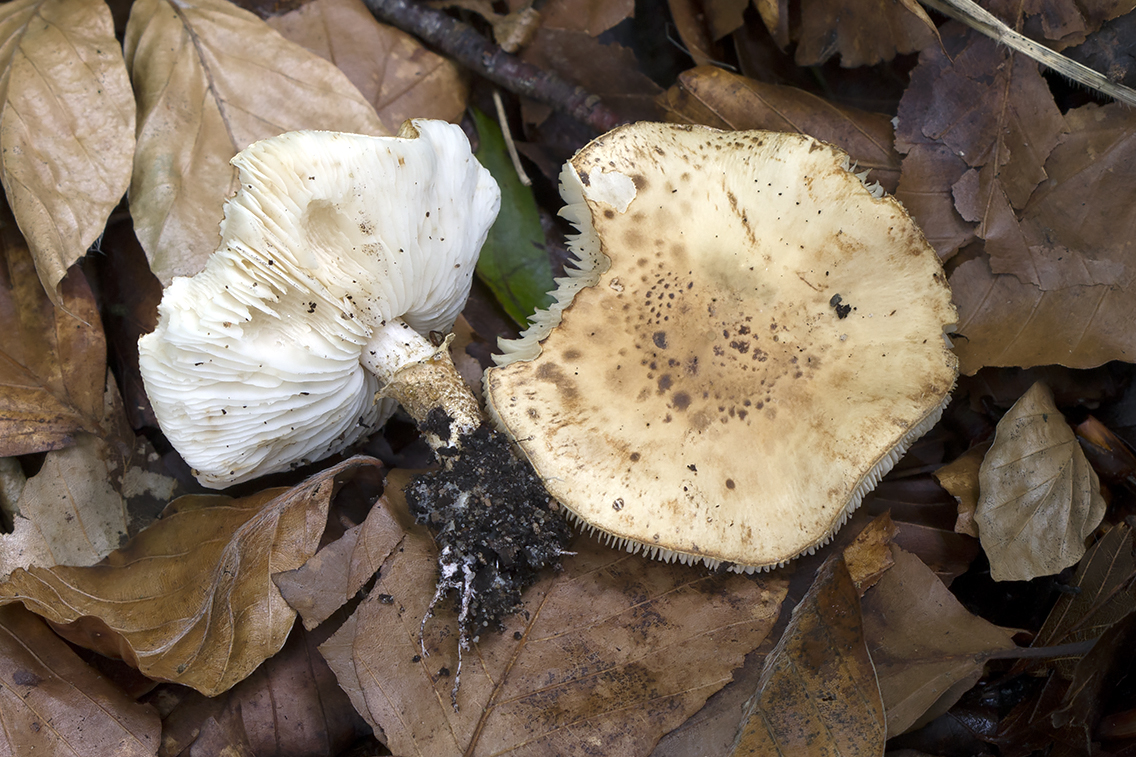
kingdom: Fungi
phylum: Basidiomycota
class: Agaricomycetes
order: Agaricales
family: Agaricaceae
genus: Chamaemyces
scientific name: Chamaemyces fracidus
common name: dråbehat
